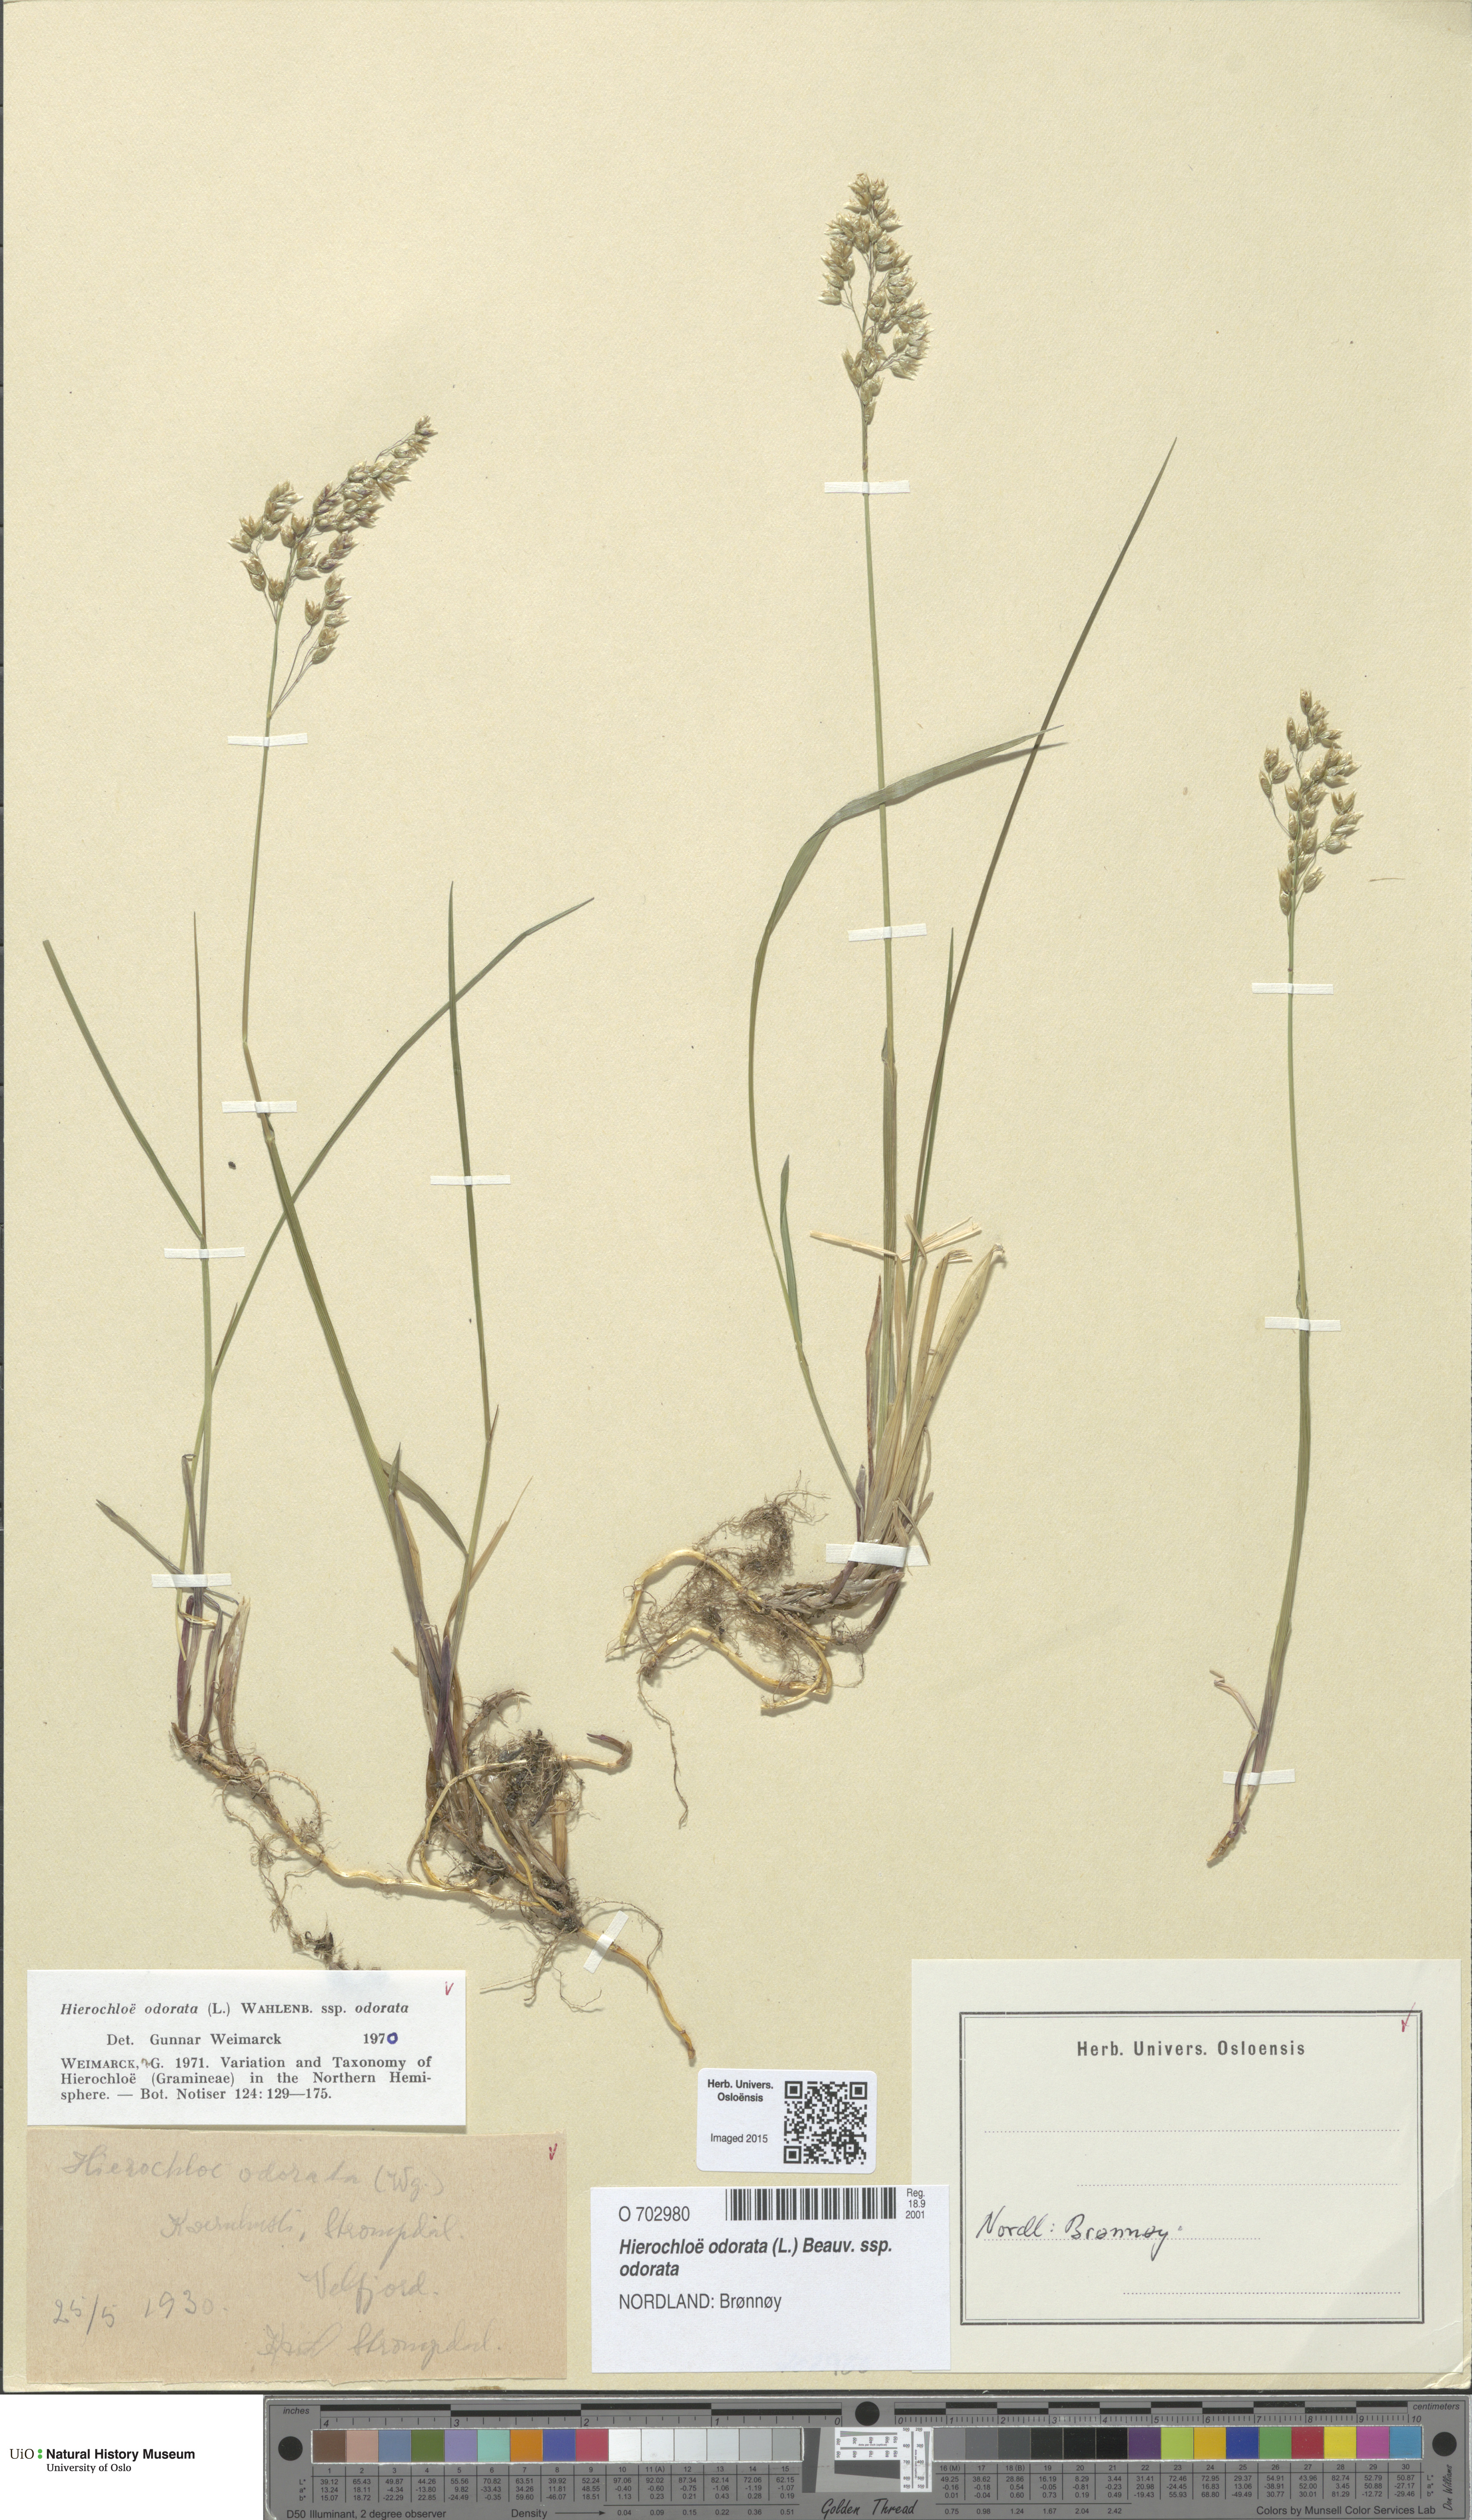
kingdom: Plantae
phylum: Tracheophyta
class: Liliopsida
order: Poales
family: Poaceae
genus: Anthoxanthum
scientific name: Anthoxanthum nitens
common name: Holy grass
